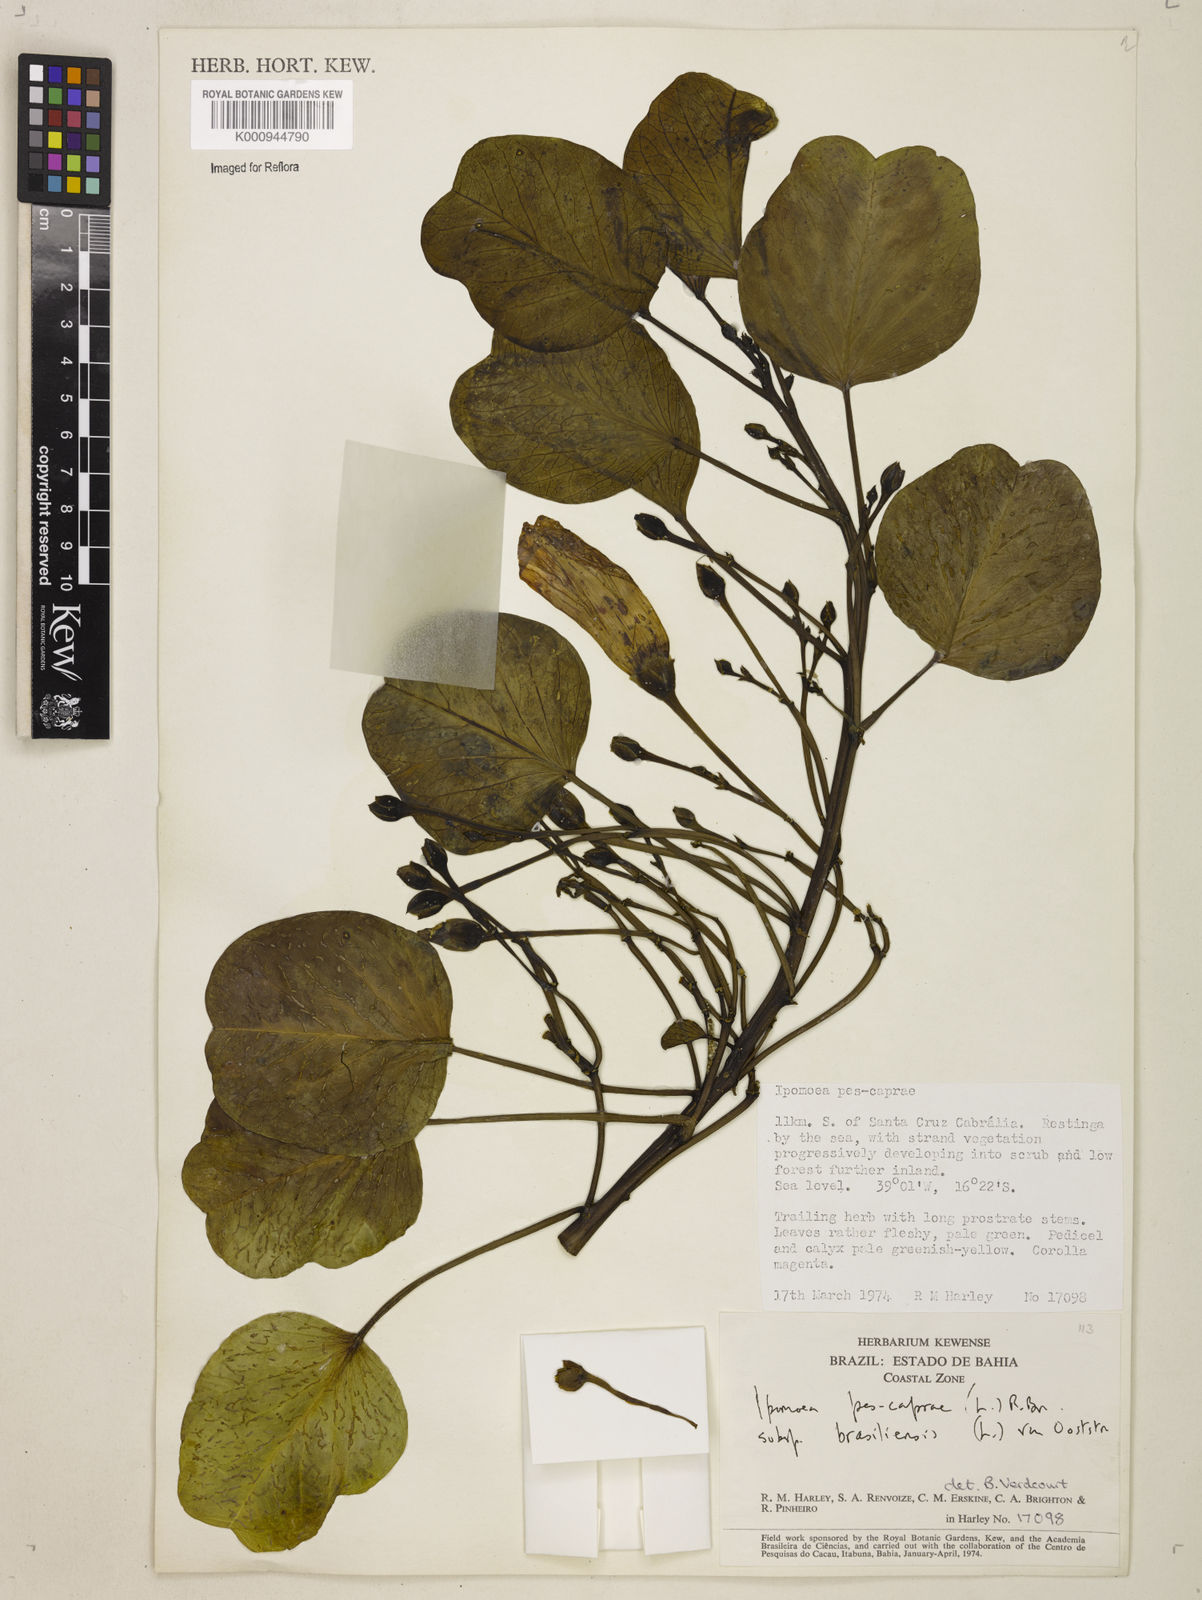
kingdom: Plantae
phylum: Tracheophyta
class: Magnoliopsida
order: Solanales
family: Convolvulaceae
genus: Ipomoea
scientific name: Ipomoea pes-caprae
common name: Beach morning glory
